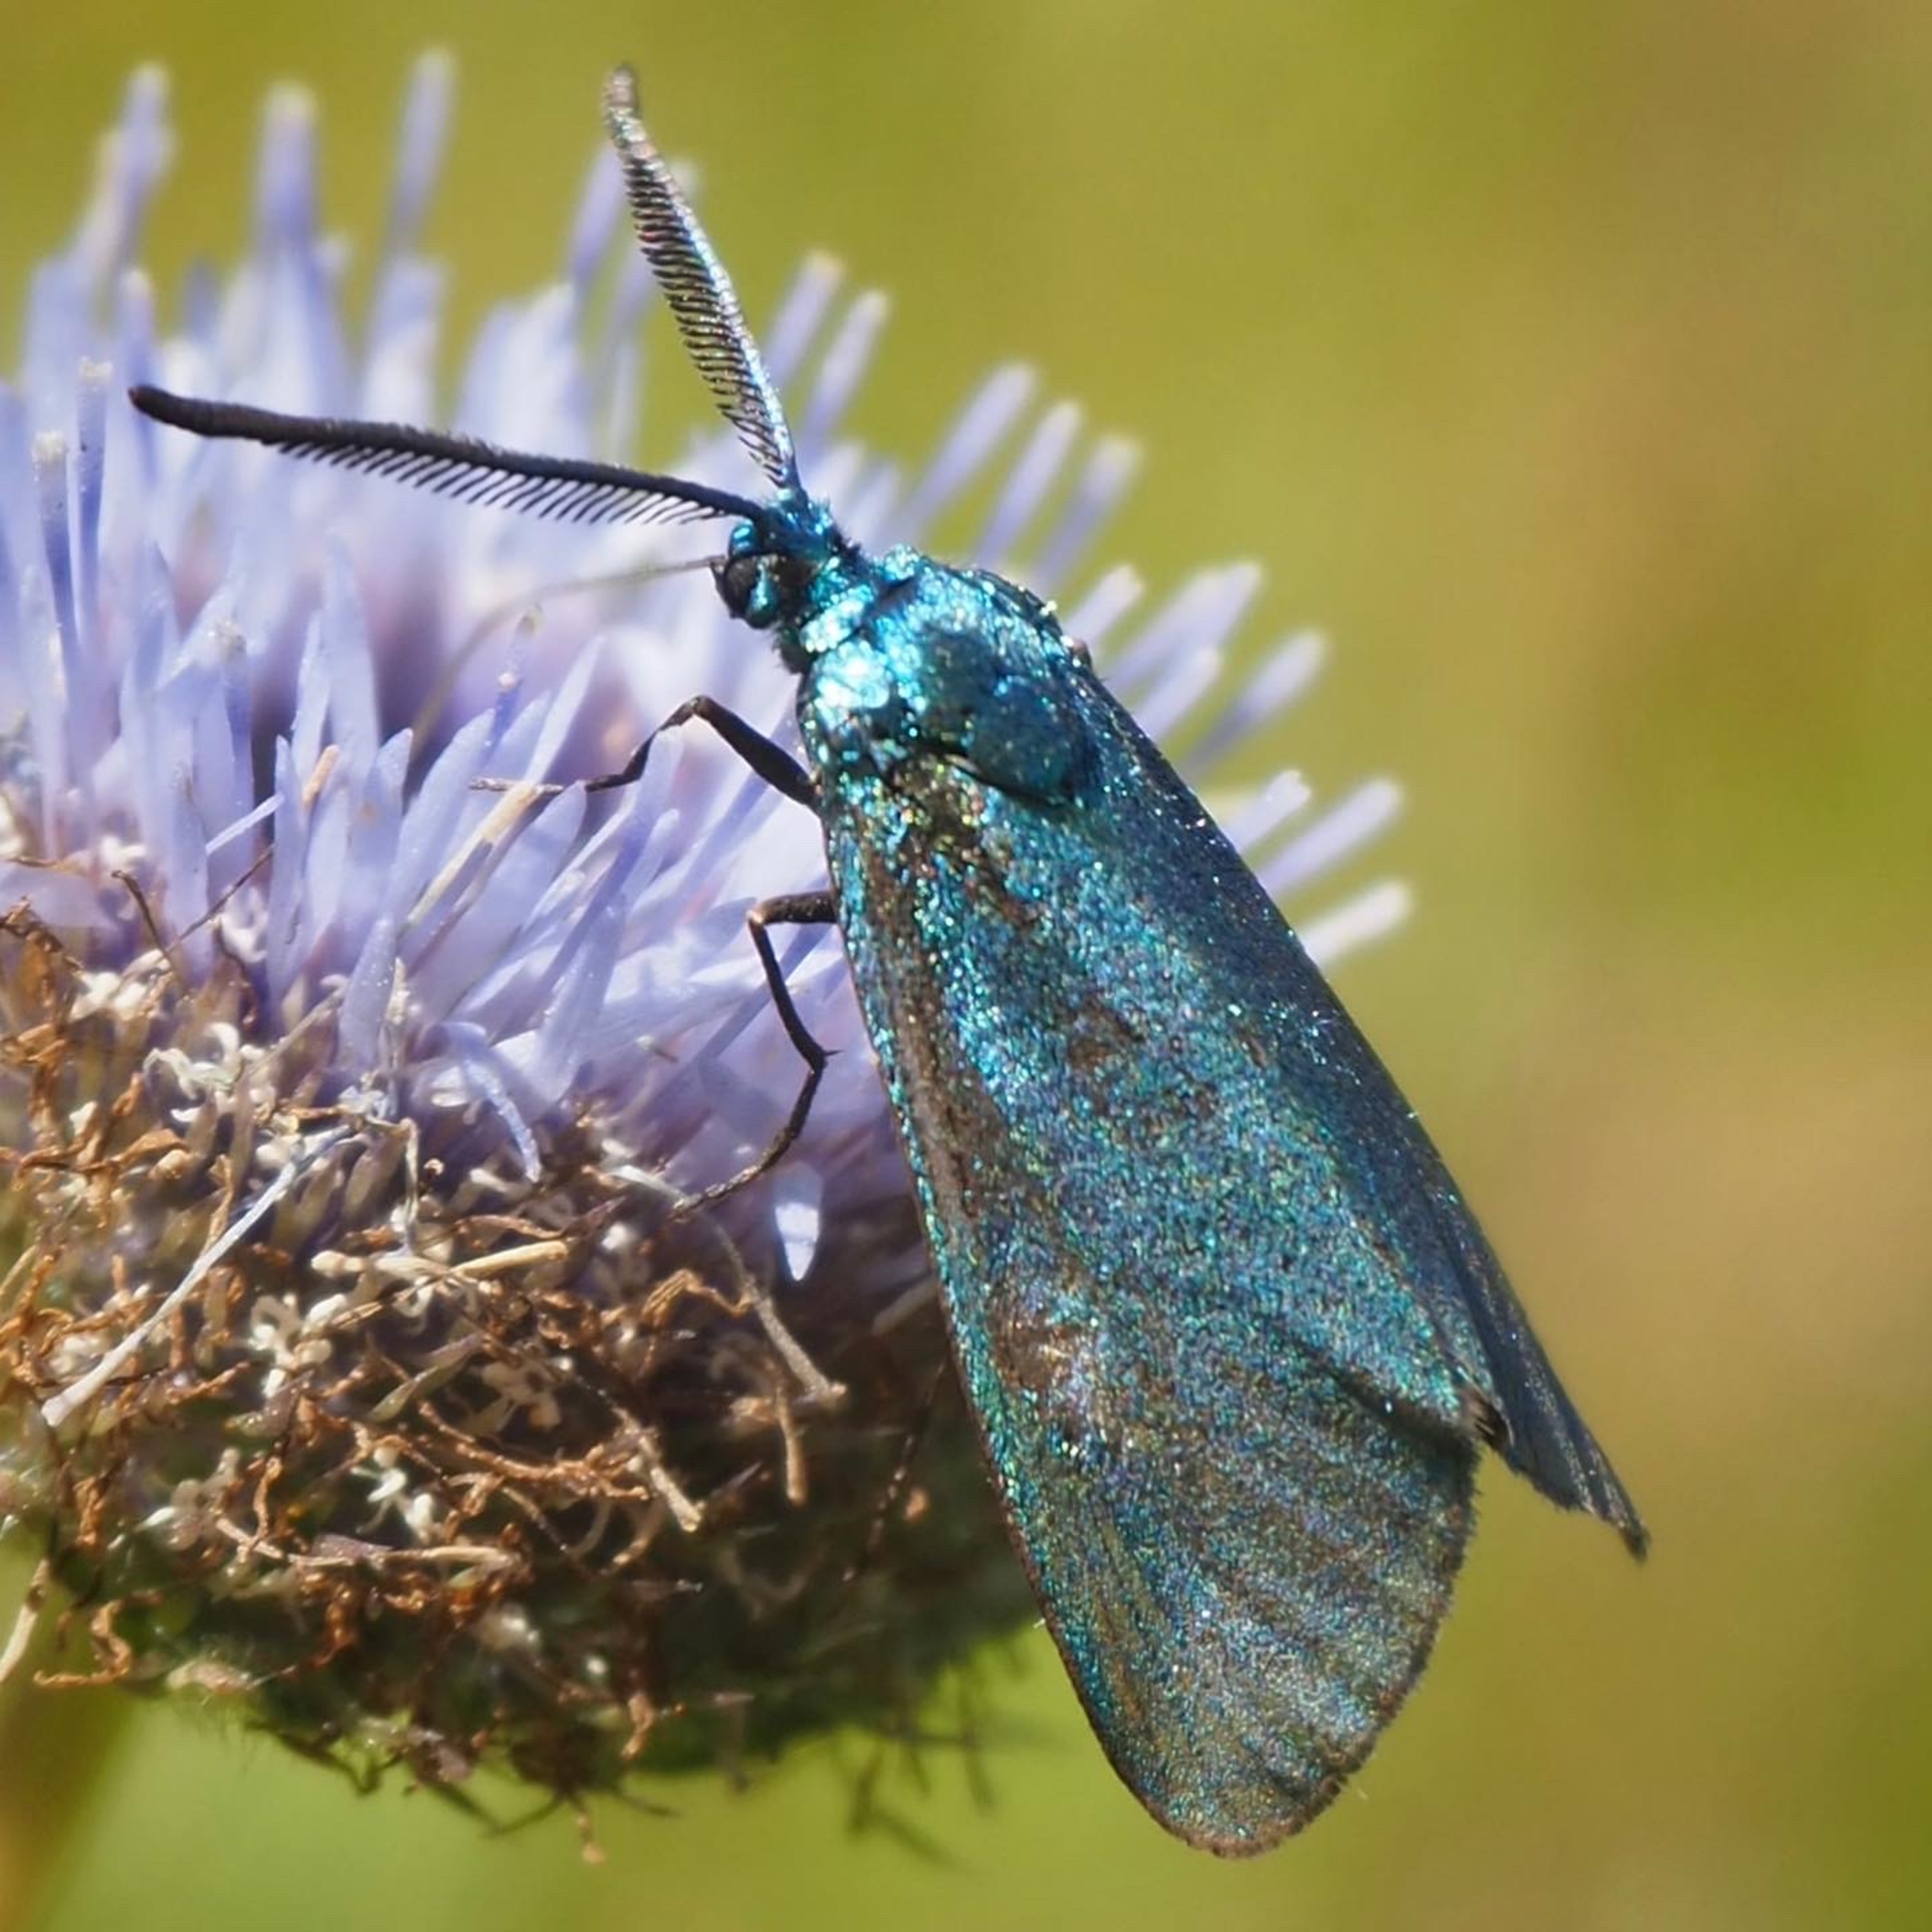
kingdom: Animalia
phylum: Arthropoda
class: Insecta
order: Lepidoptera
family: Zygaenidae
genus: Adscita
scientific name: Adscita statices
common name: Metalvinge
